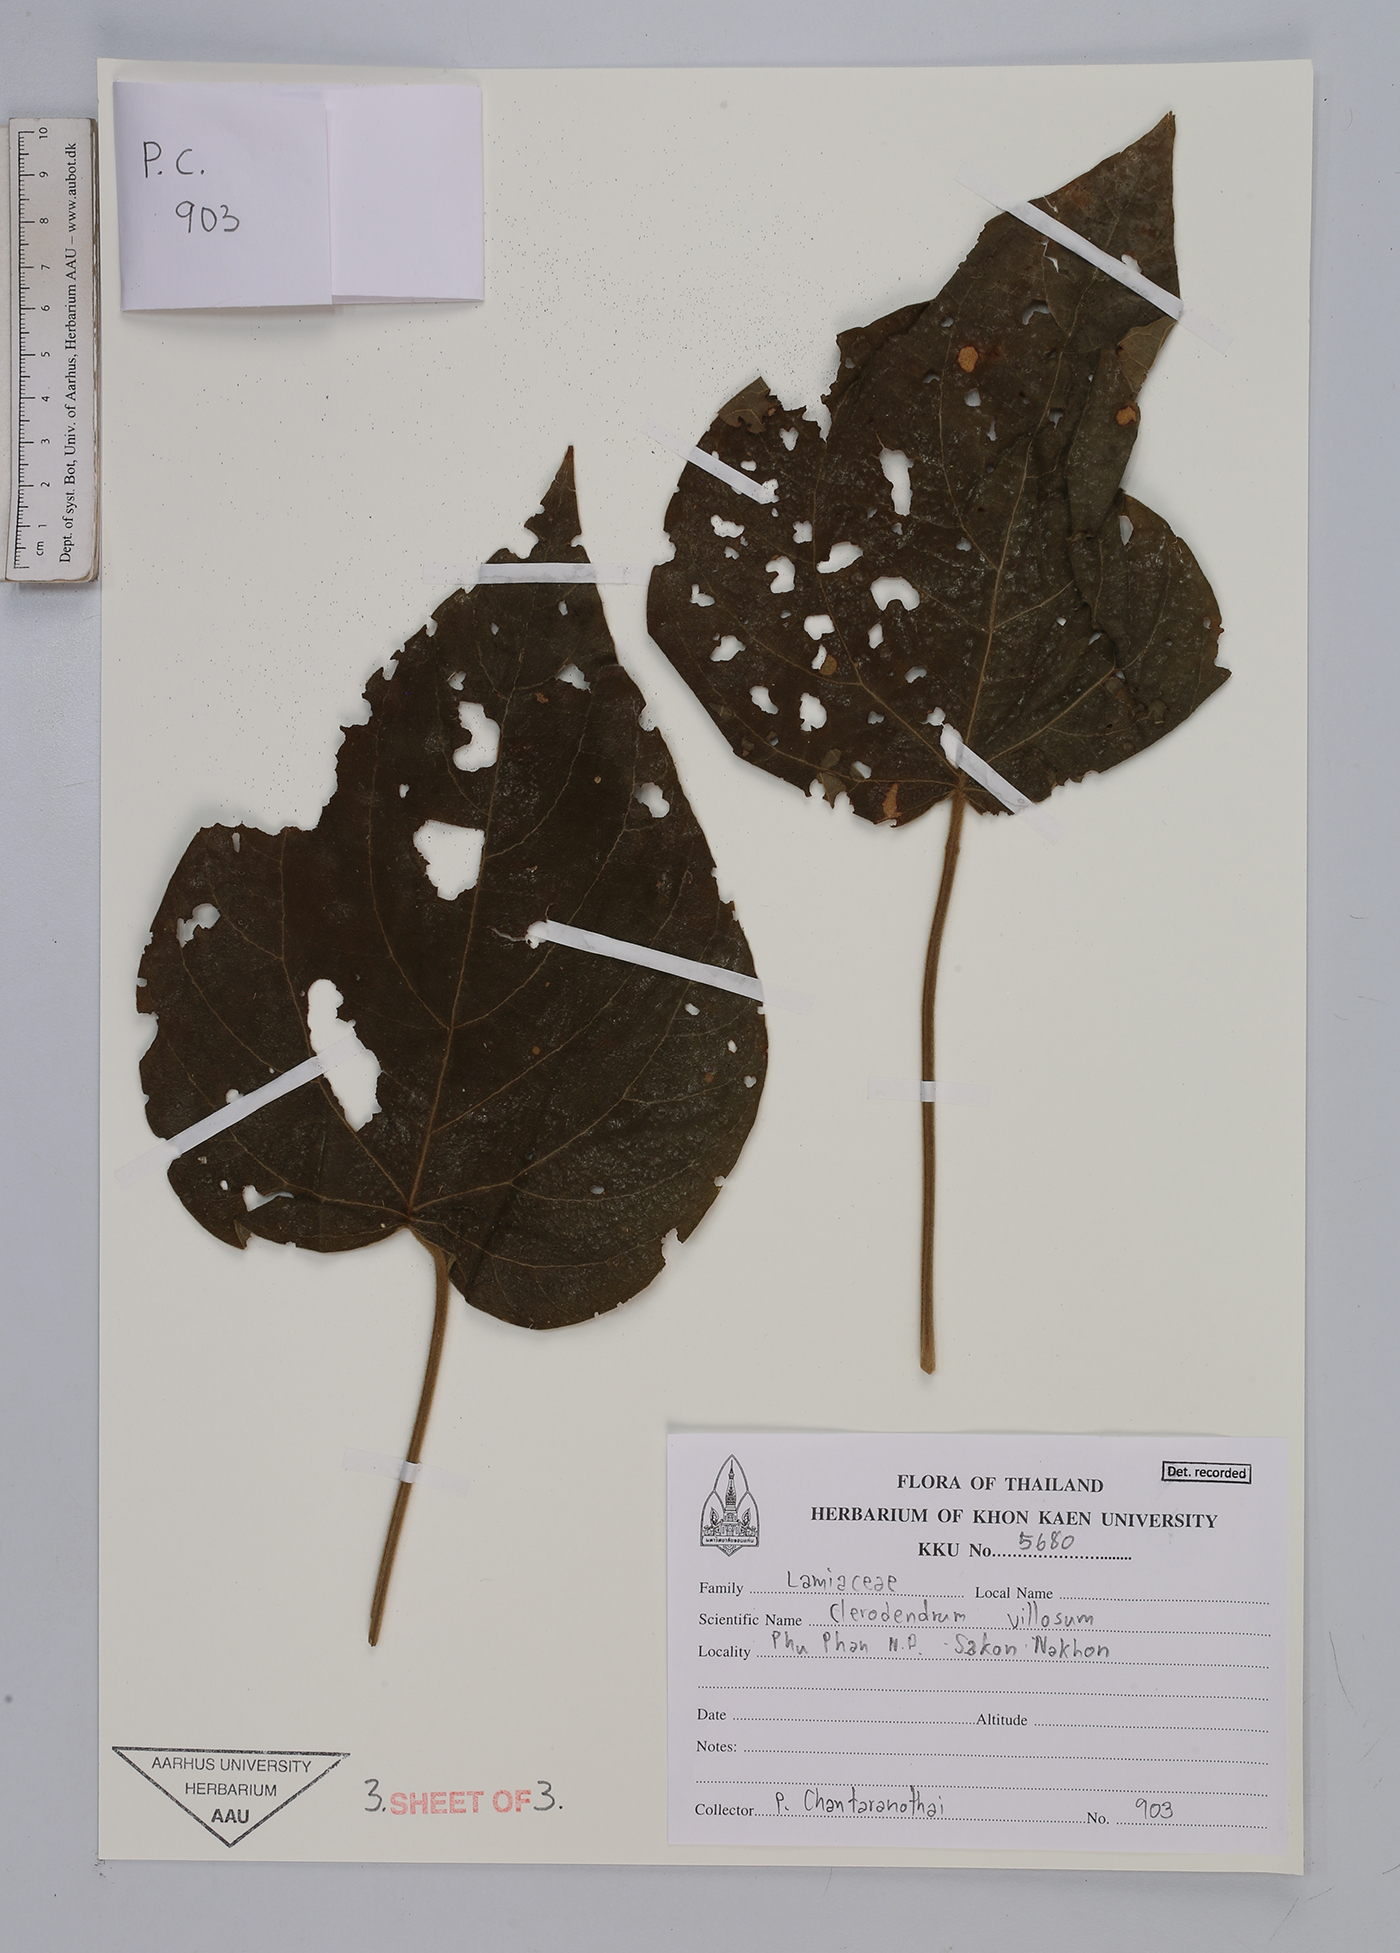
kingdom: Plantae
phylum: Tracheophyta
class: Magnoliopsida
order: Lamiales
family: Lamiaceae
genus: Clerodendrum
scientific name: Clerodendrum villosum
